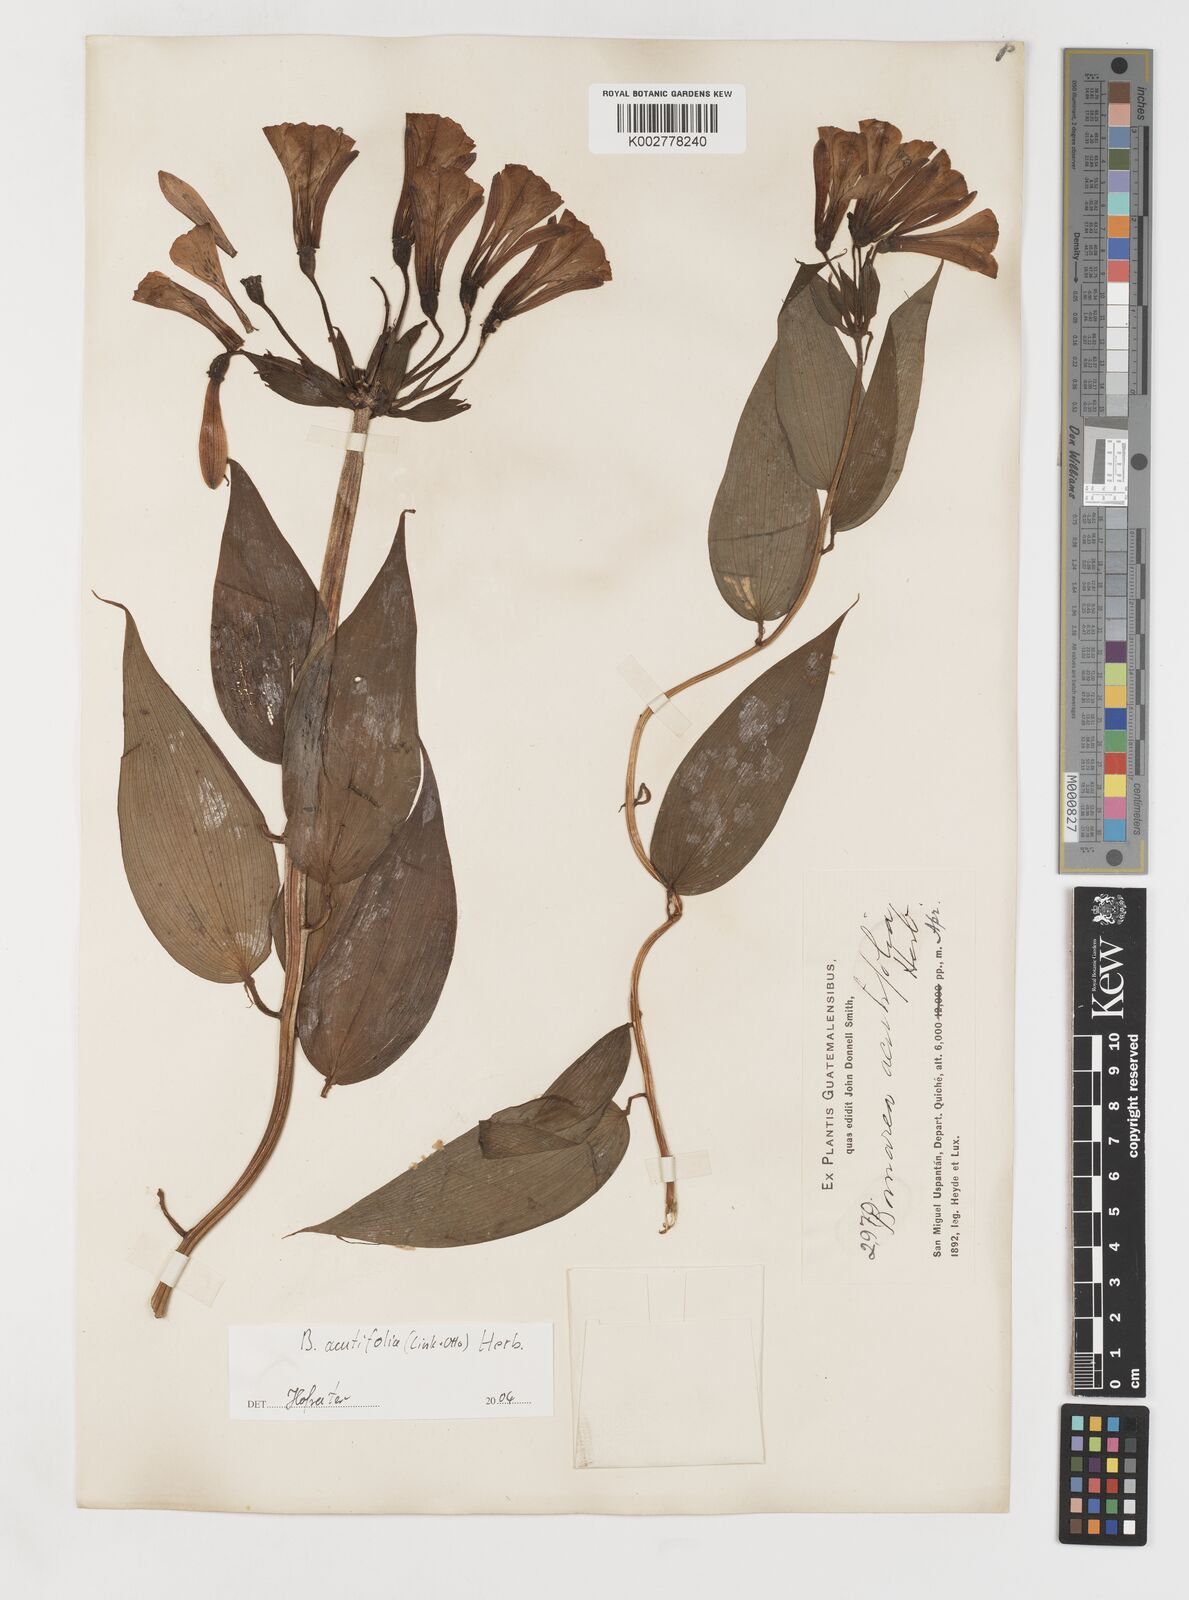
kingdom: Plantae
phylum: Tracheophyta
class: Liliopsida
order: Liliales
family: Alstroemeriaceae
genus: Bomarea
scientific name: Bomarea acutifolia
